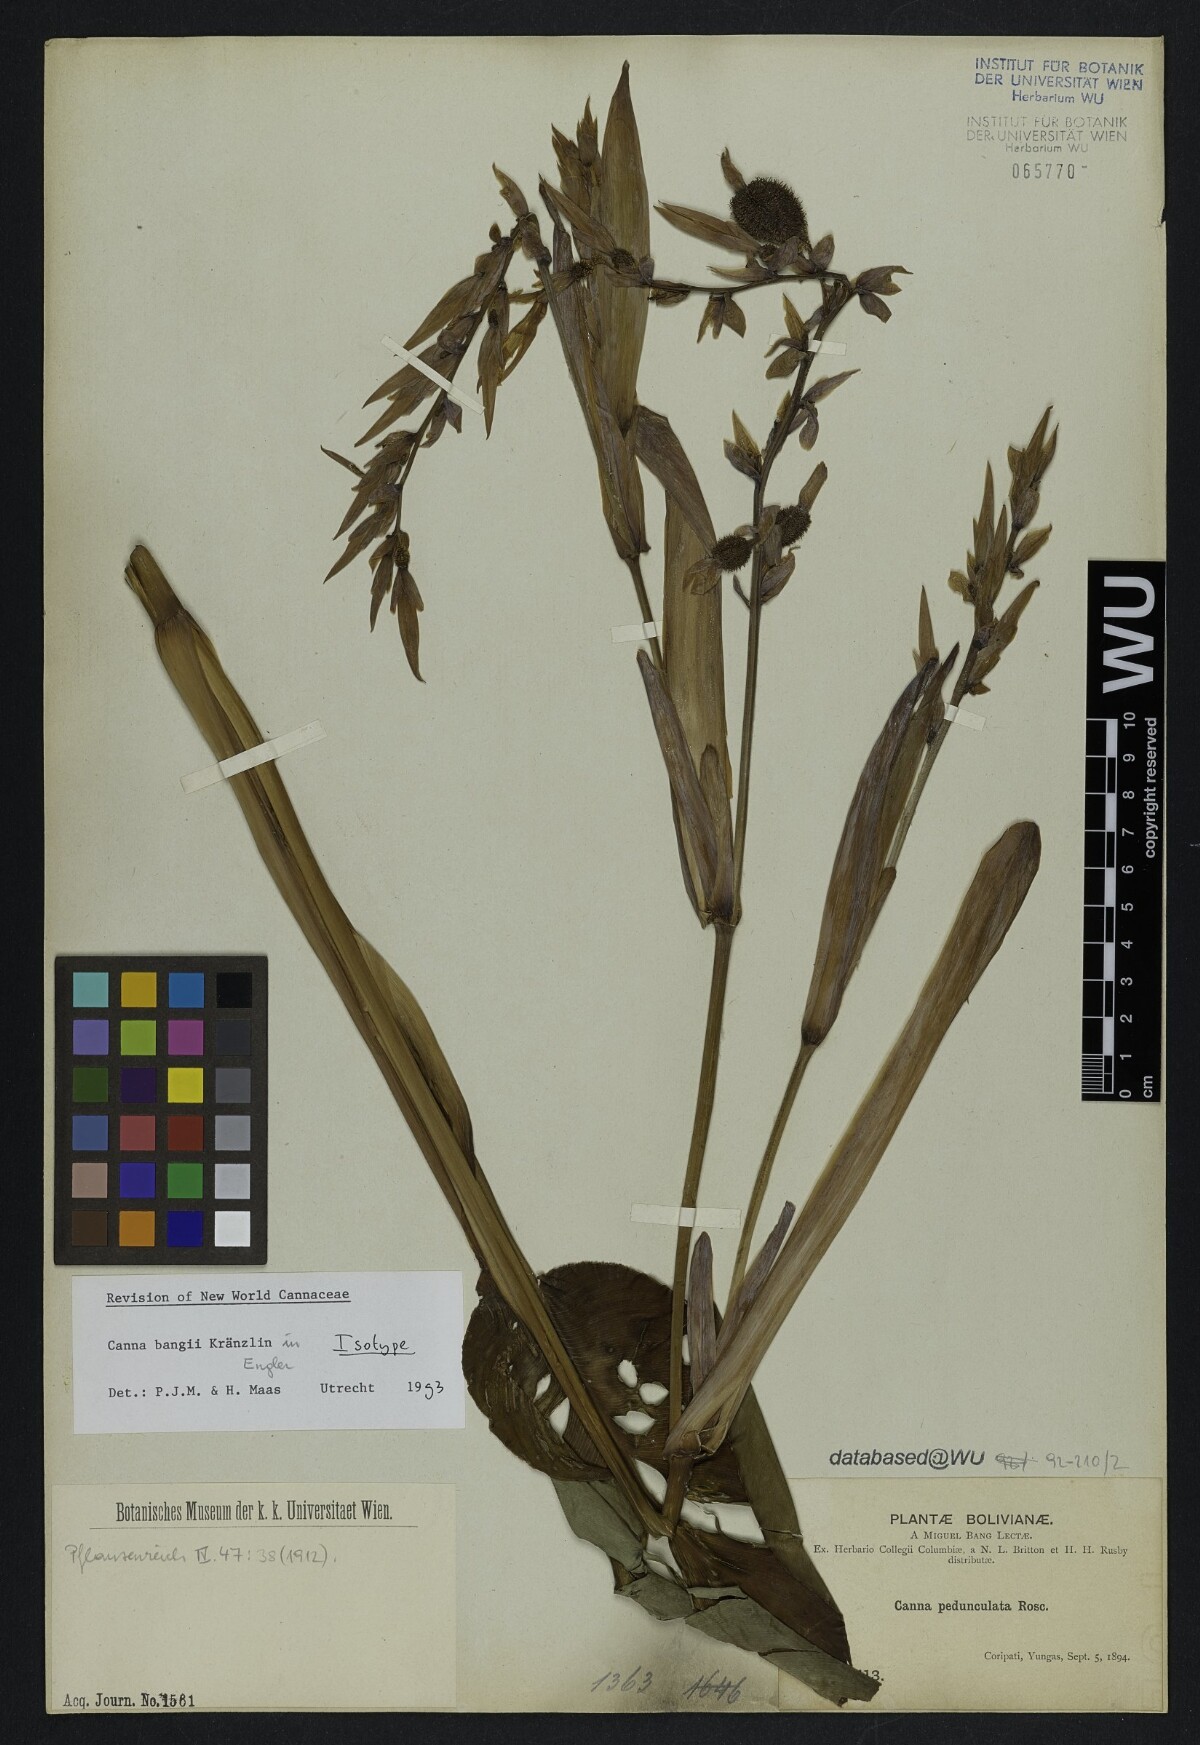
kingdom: Plantae
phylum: Tracheophyta
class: Liliopsida
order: Zingiberales
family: Cannaceae
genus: Canna
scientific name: Canna bangii
